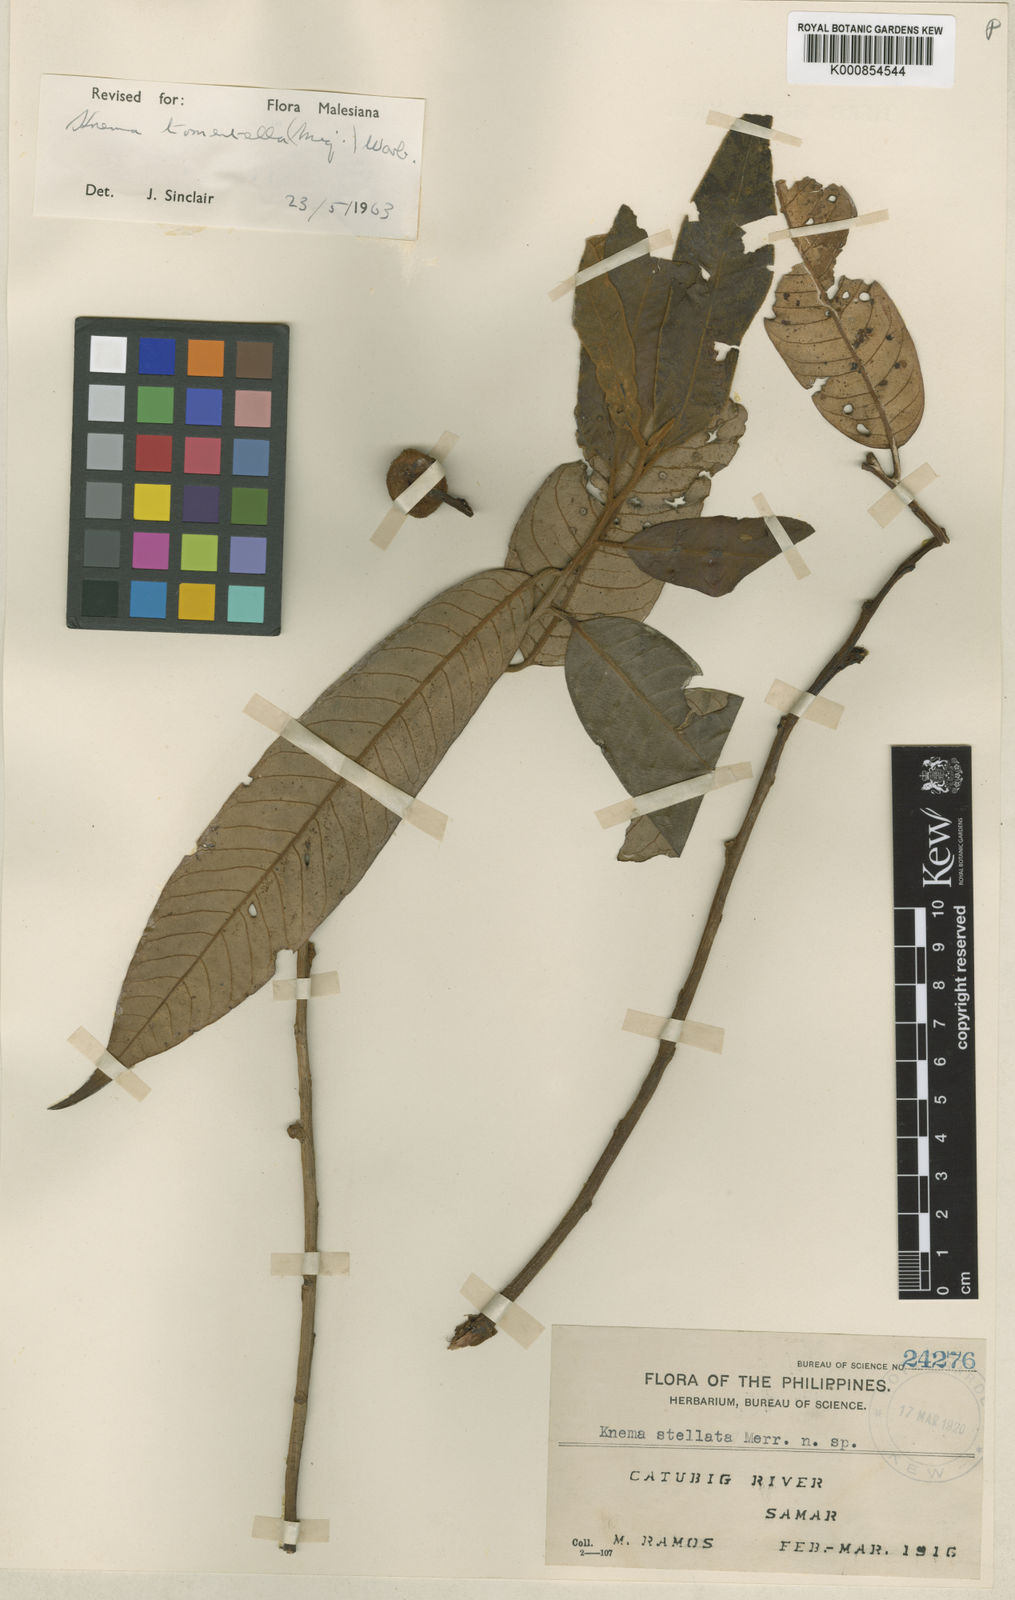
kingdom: Plantae
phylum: Tracheophyta
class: Magnoliopsida
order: Magnoliales
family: Myristicaceae
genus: Knema
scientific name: Knema tomentella
